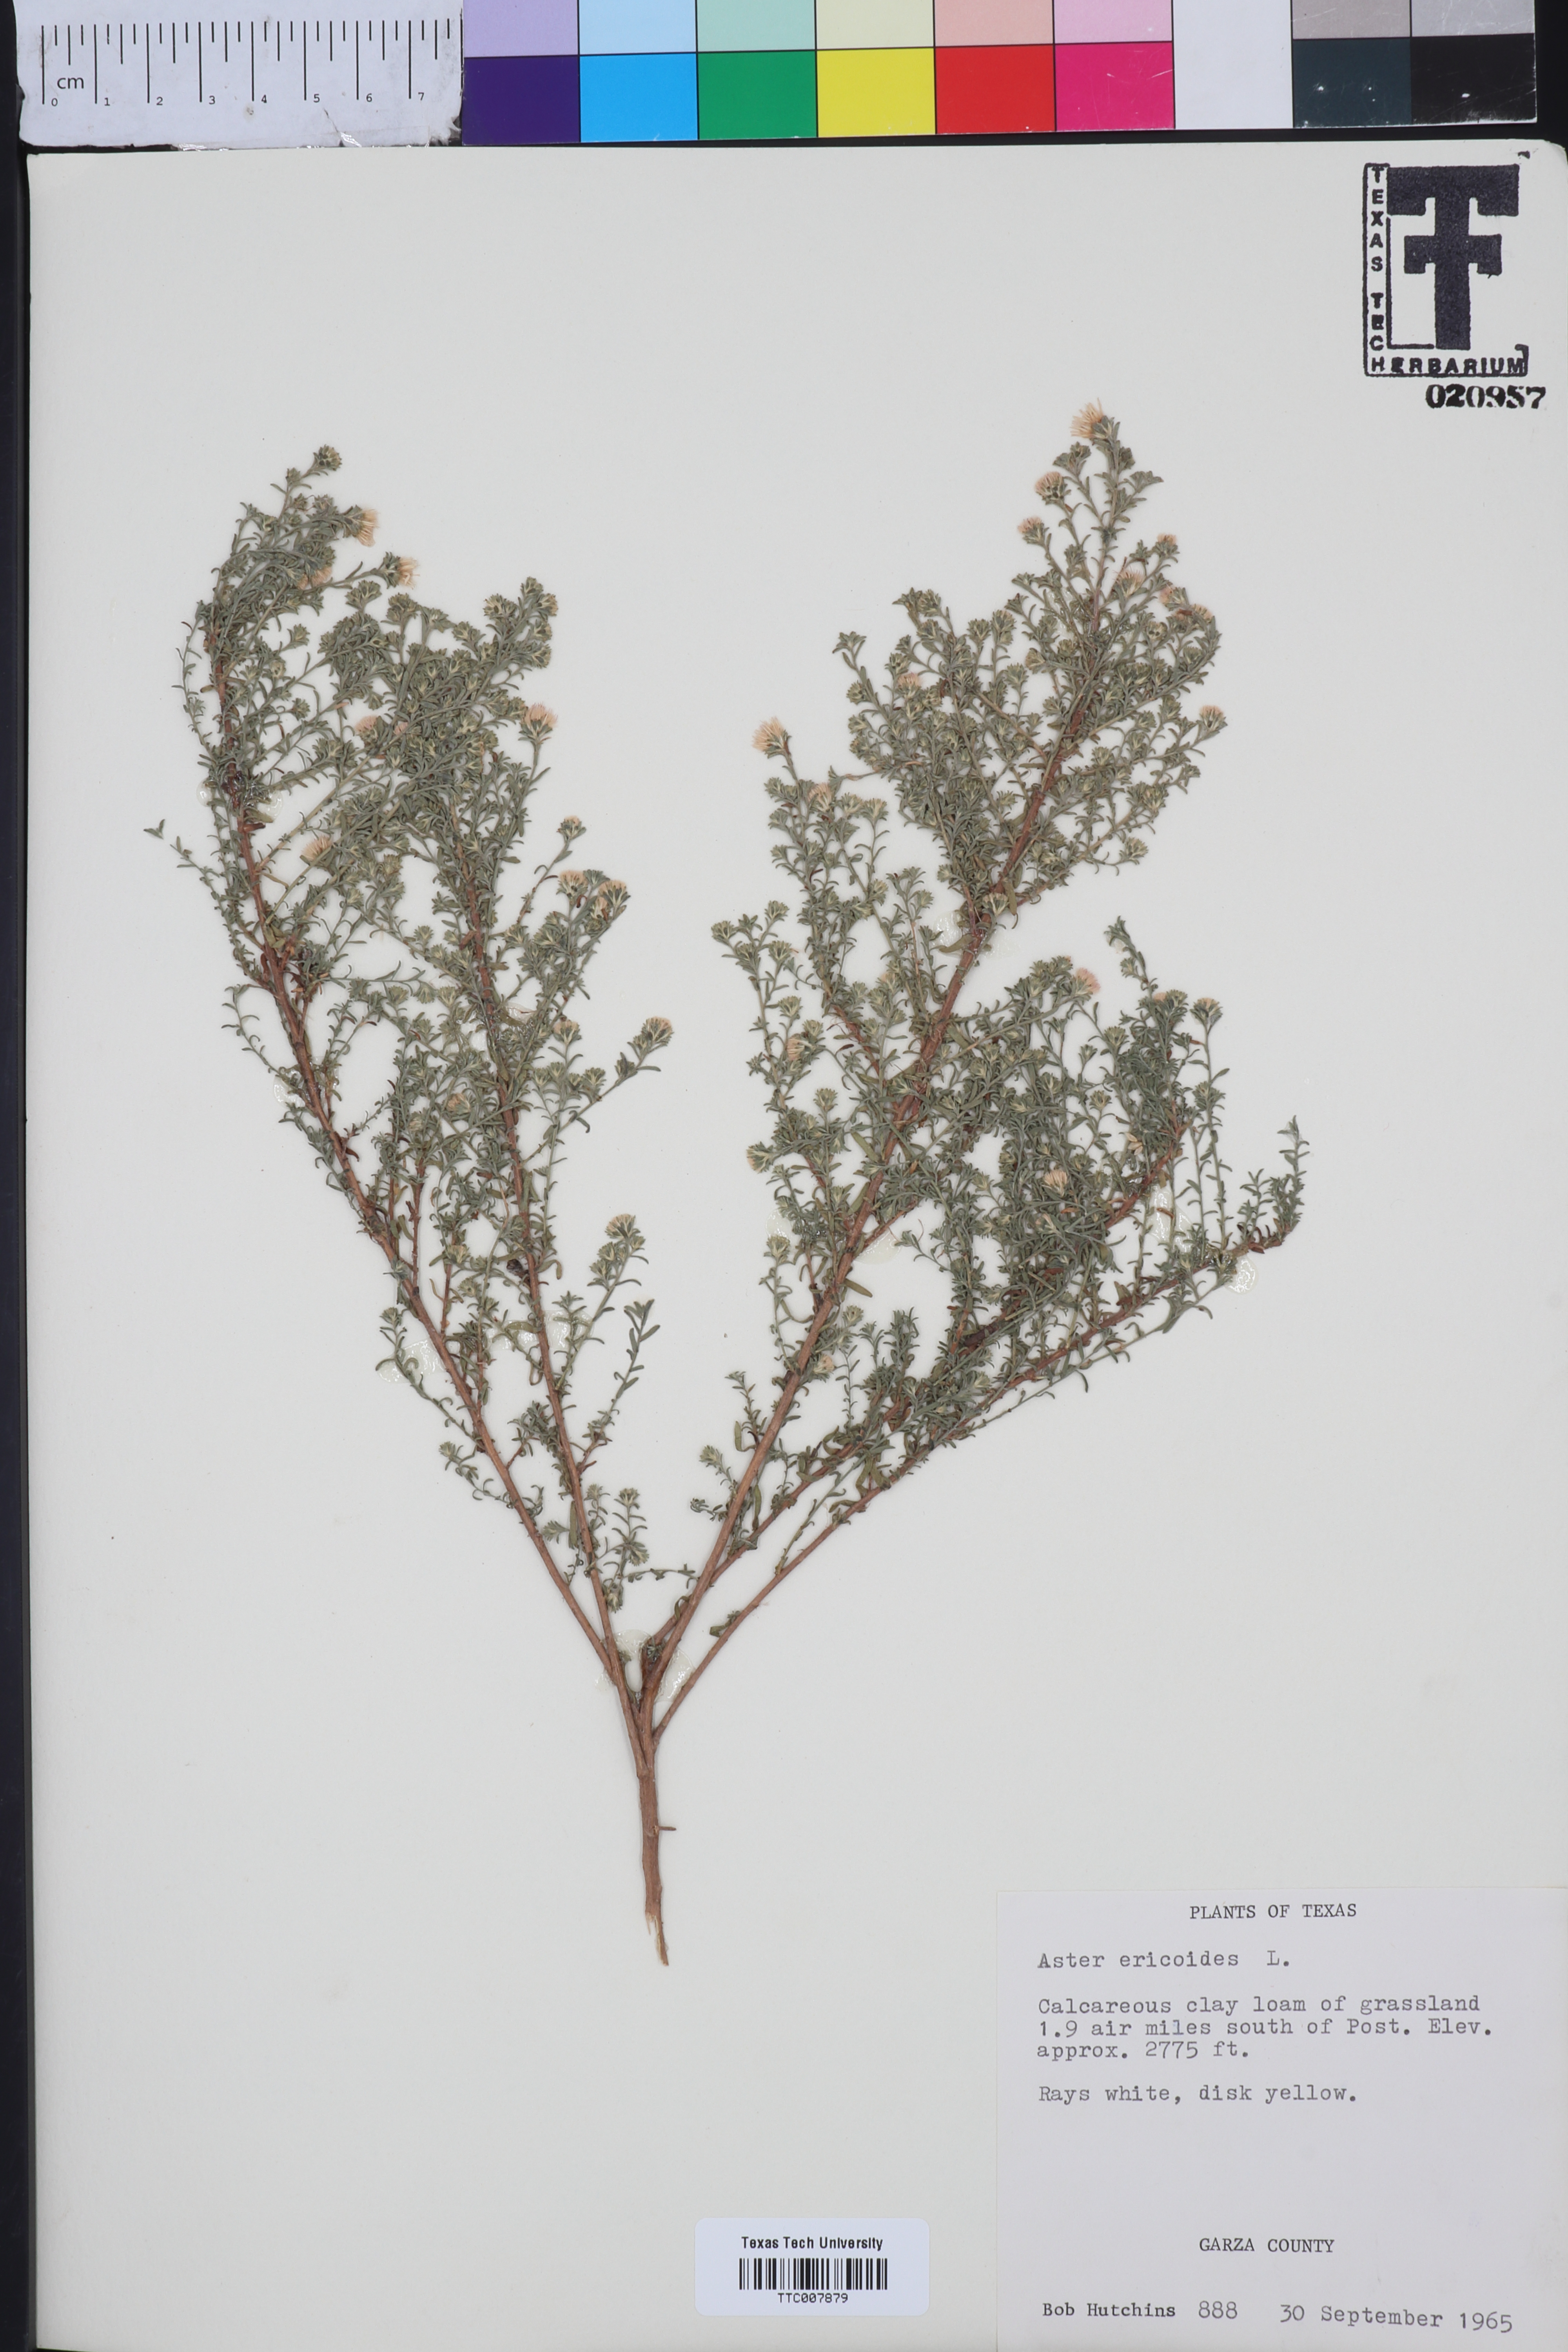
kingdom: Plantae
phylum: Tracheophyta
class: Magnoliopsida
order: Asterales
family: Asteraceae
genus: Symphyotrichum
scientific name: Symphyotrichum ericoides
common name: Heath aster
